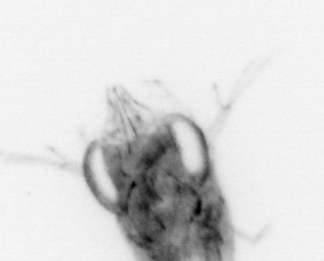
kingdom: Animalia
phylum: Arthropoda
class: Malacostraca
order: Decapoda
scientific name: Decapoda
